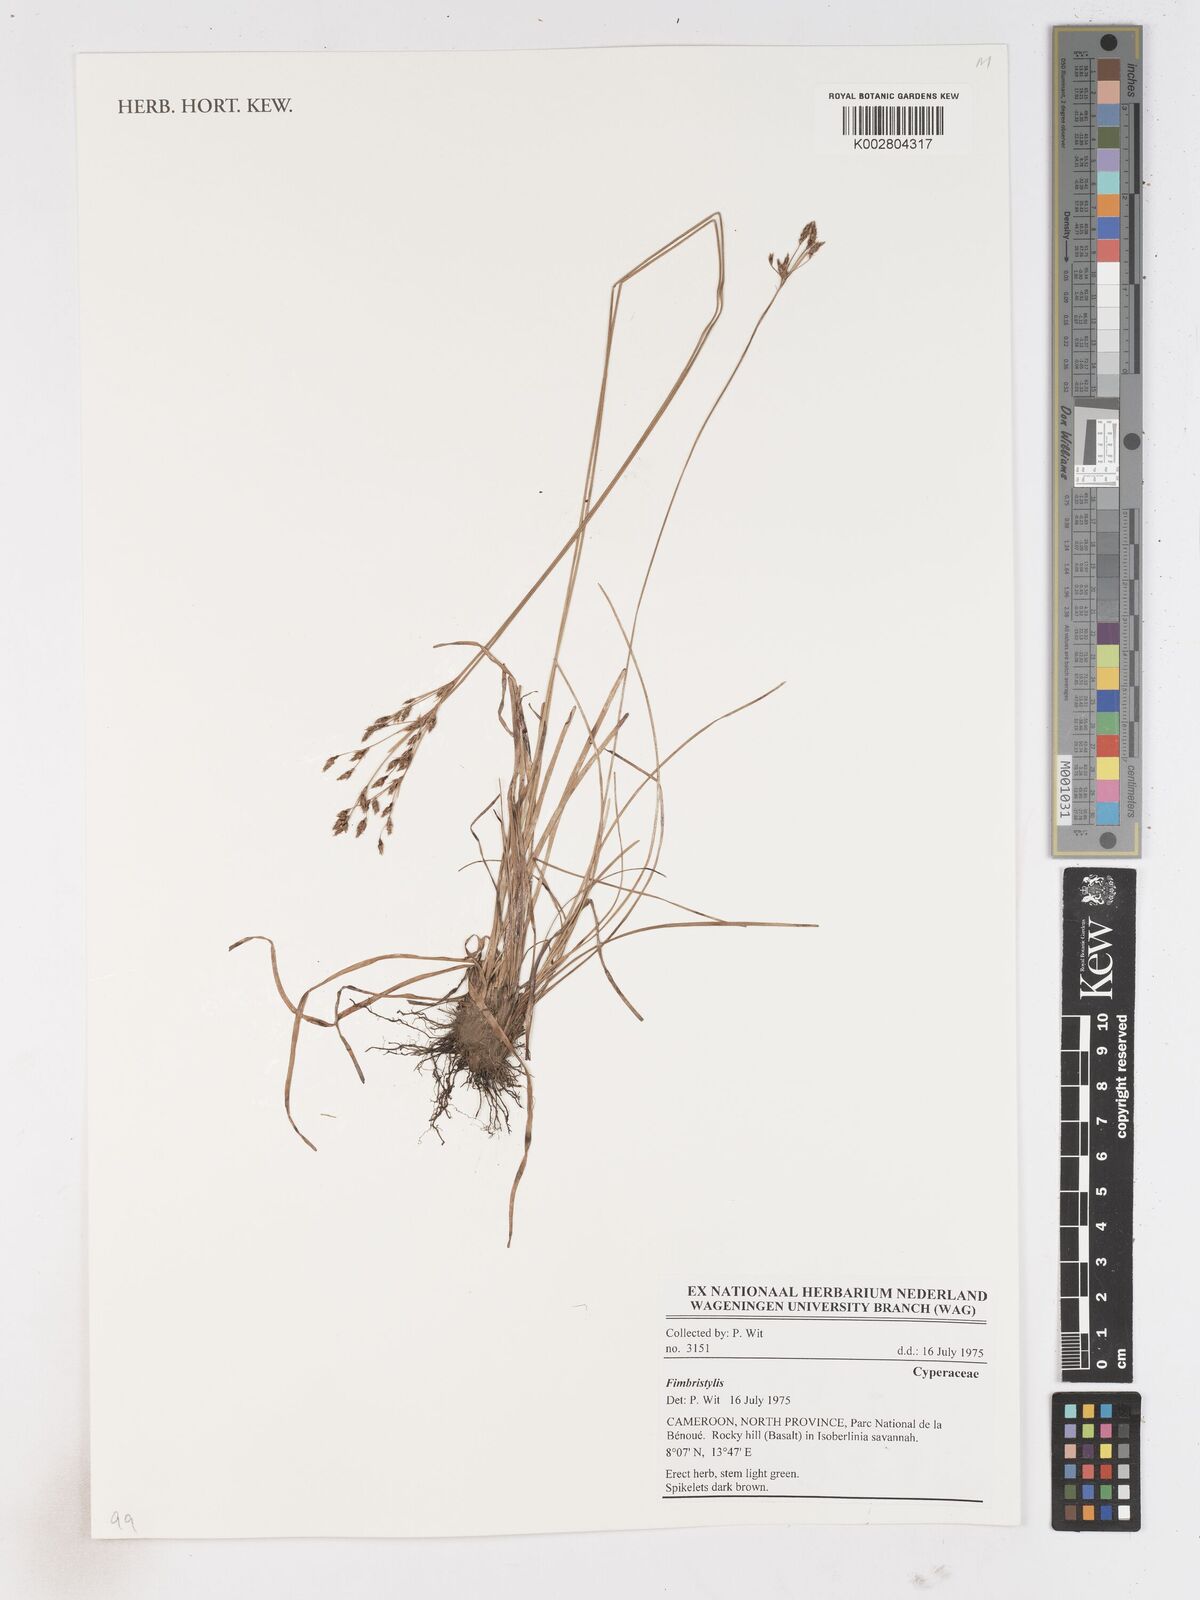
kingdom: Plantae
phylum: Tracheophyta
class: Liliopsida
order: Poales
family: Cyperaceae
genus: Fimbristylis
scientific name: Fimbristylis
